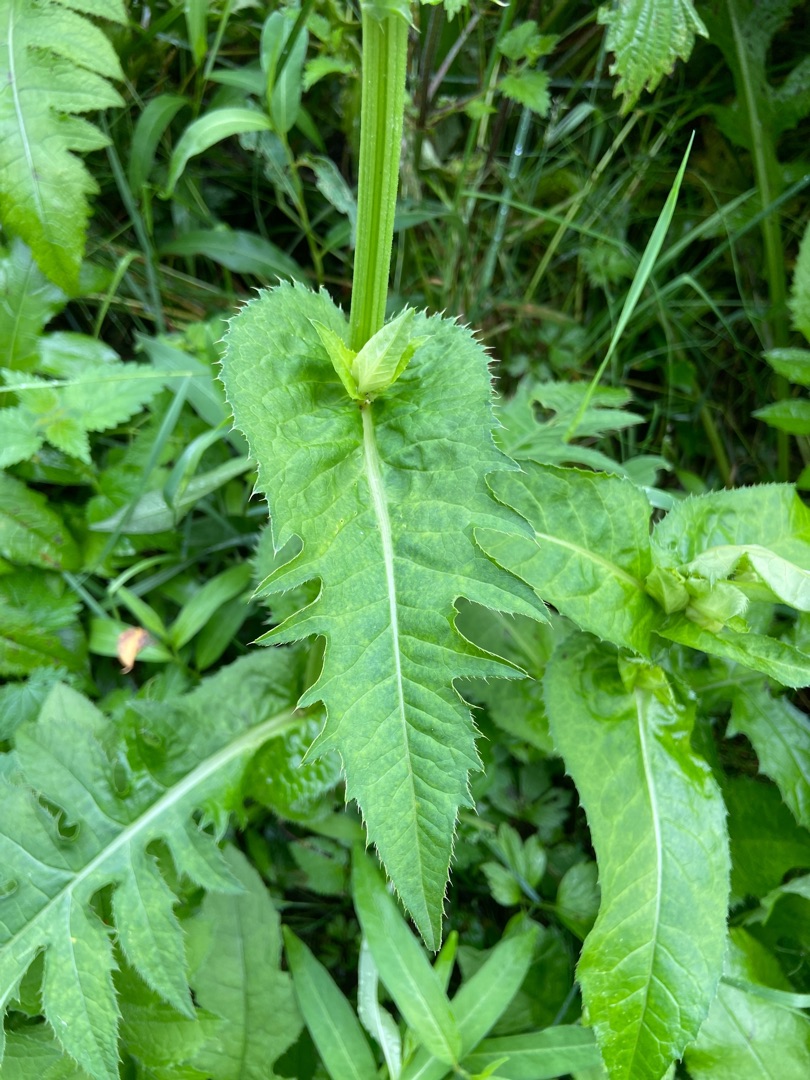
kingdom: Plantae
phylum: Tracheophyta
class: Magnoliopsida
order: Asterales
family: Asteraceae
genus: Cirsium
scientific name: Cirsium oleraceum
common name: Kål-tidsel
